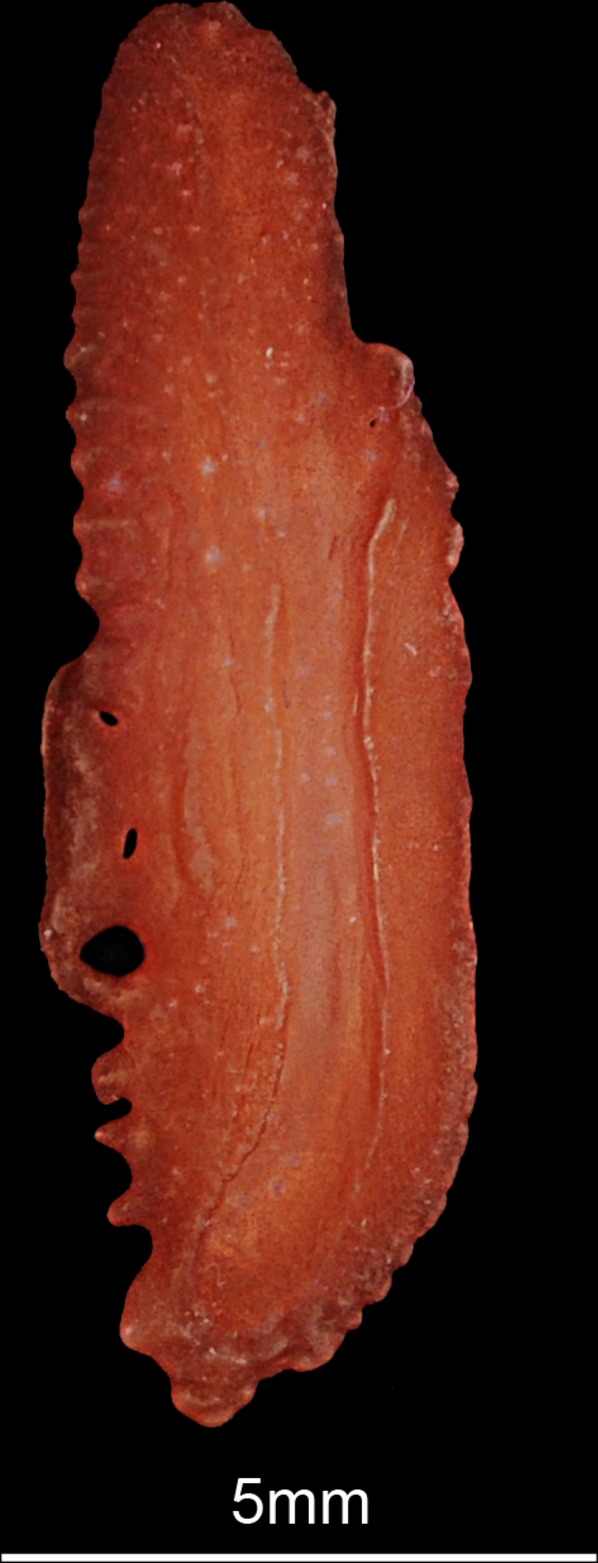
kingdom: Animalia
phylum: Chordata
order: Perciformes
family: Pomatomidae
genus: Pomatomus
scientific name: Pomatomus saltatrix
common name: Bluefish
